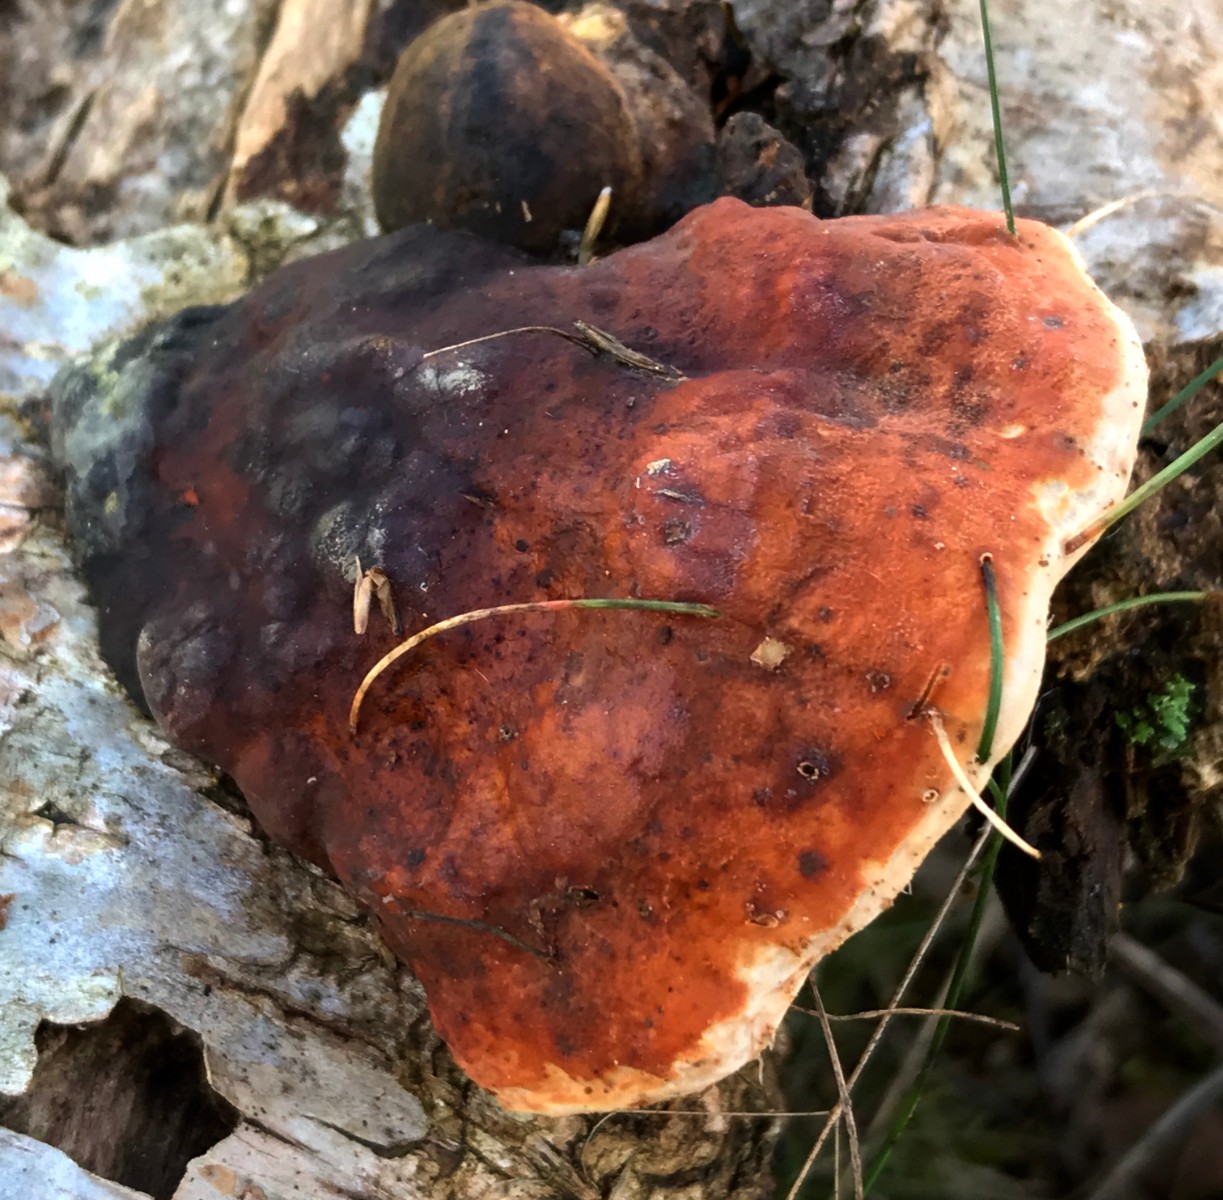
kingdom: Fungi
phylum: Basidiomycota
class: Agaricomycetes
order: Polyporales
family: Fomitopsidaceae
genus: Fomitopsis
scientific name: Fomitopsis pinicola
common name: randbæltet hovporesvamp
